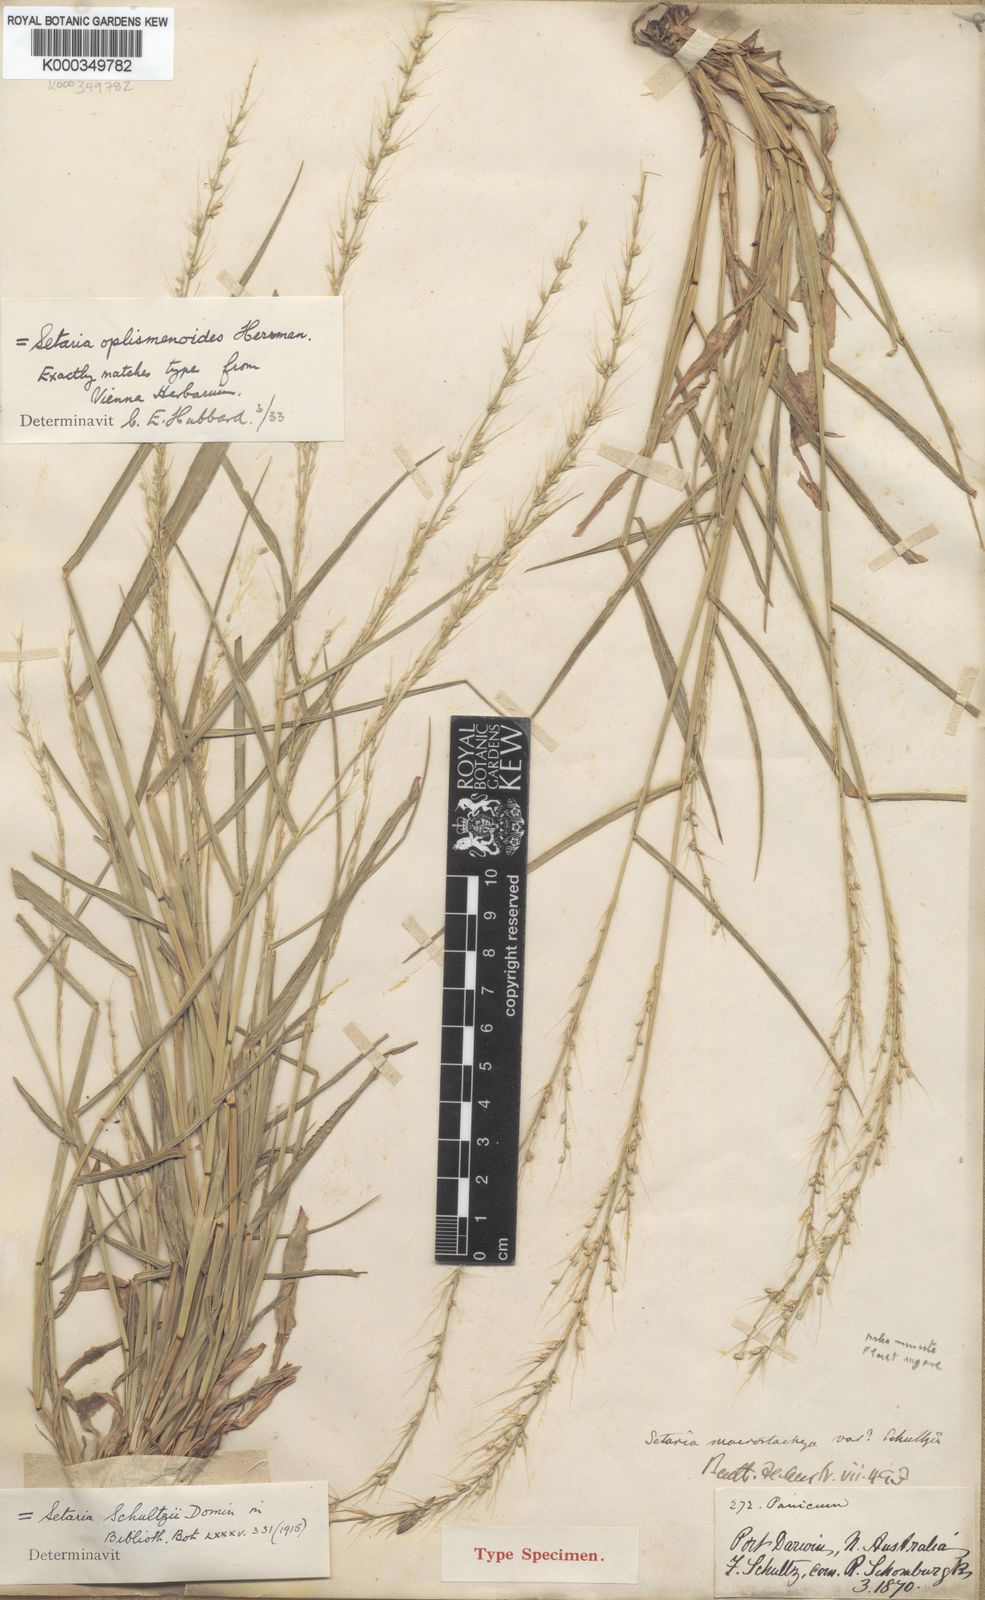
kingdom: Plantae
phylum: Tracheophyta
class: Liliopsida
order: Poales
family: Poaceae
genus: Setaria
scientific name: Setaria oplismenoides
